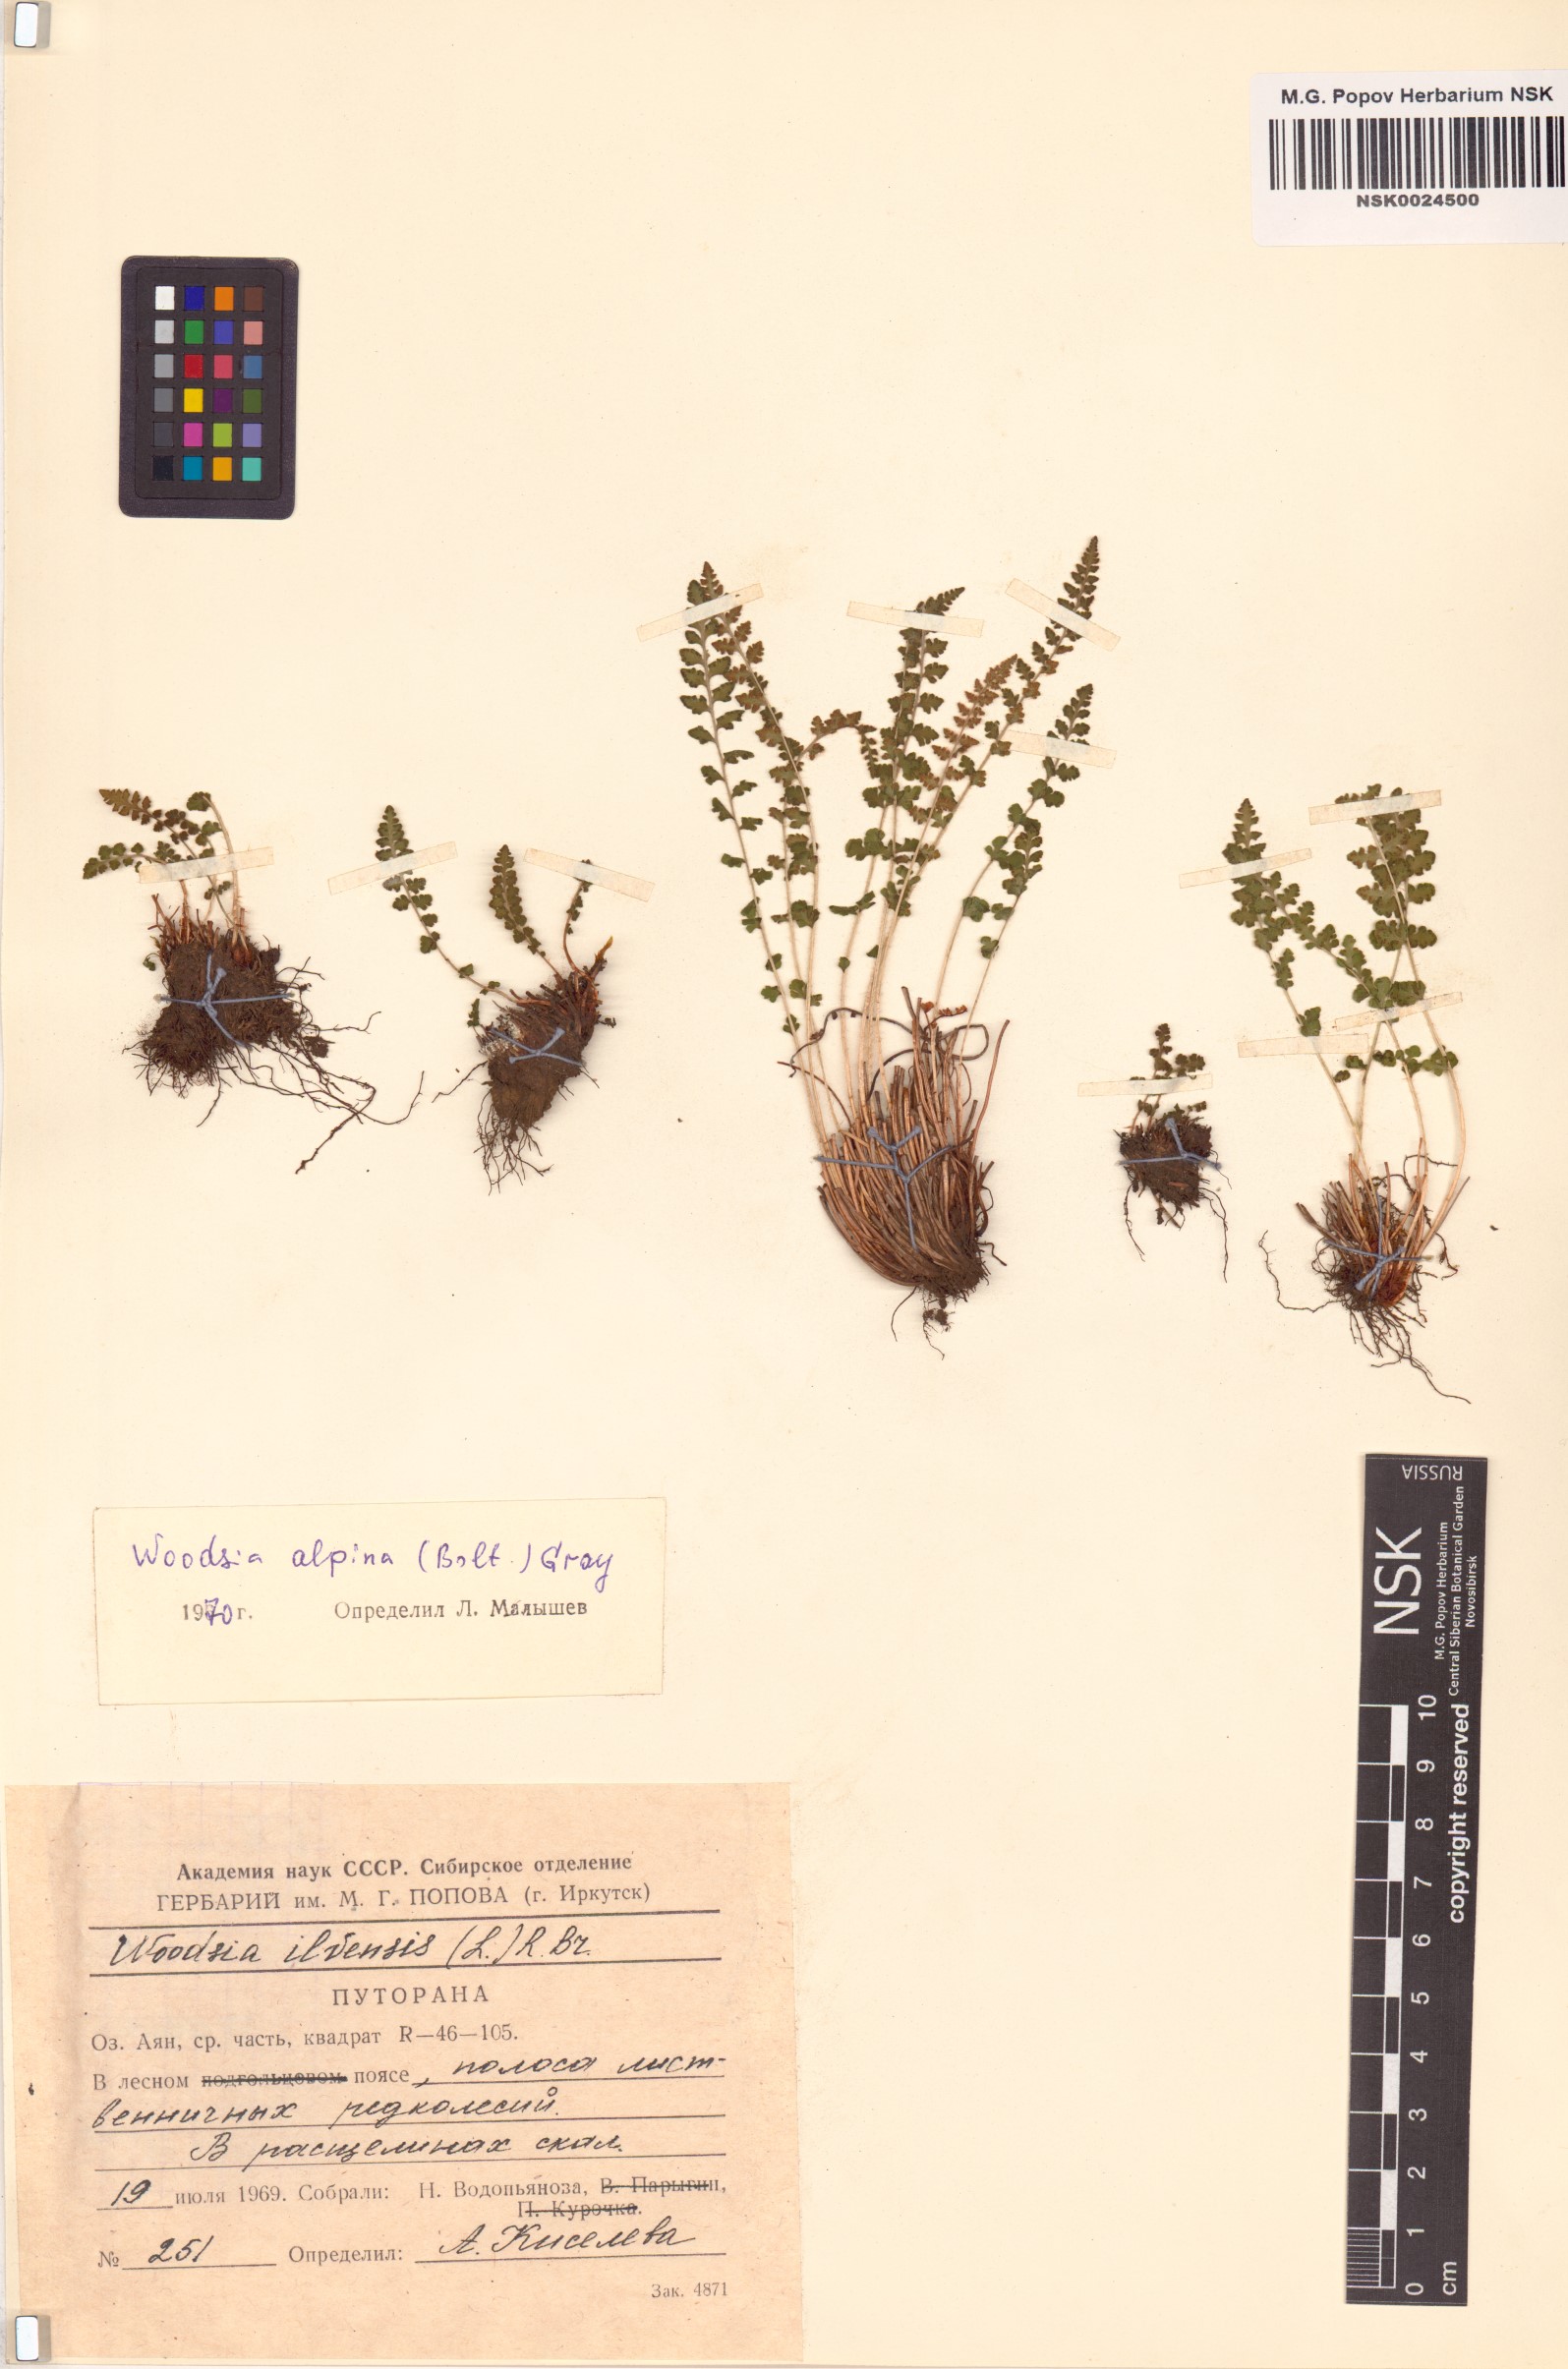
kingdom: Plantae
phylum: Tracheophyta
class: Polypodiopsida
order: Polypodiales
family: Woodsiaceae
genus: Woodsia
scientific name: Woodsia alpina
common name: Alpine woodsia
